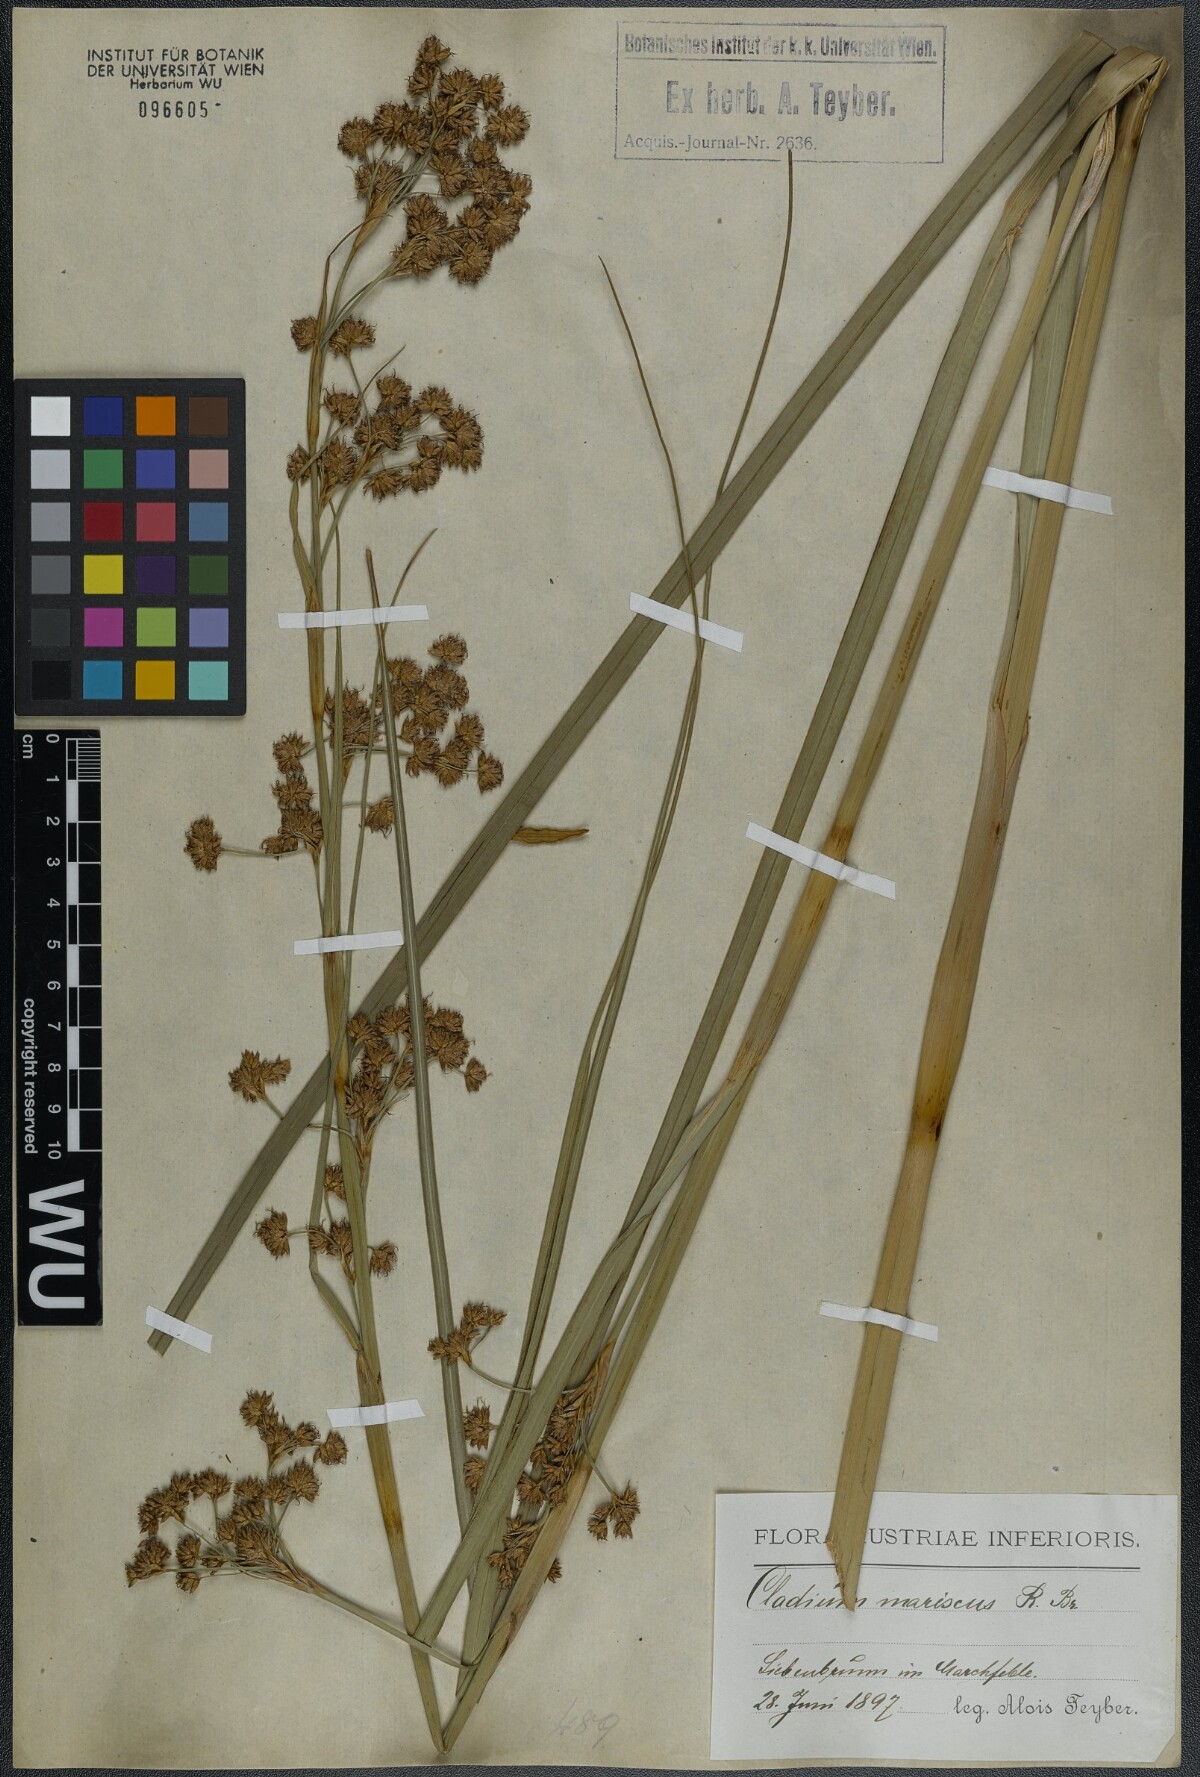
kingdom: Plantae
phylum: Tracheophyta
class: Liliopsida
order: Poales
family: Cyperaceae
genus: Cladium
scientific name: Cladium mariscus
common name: Great fen-sedge
